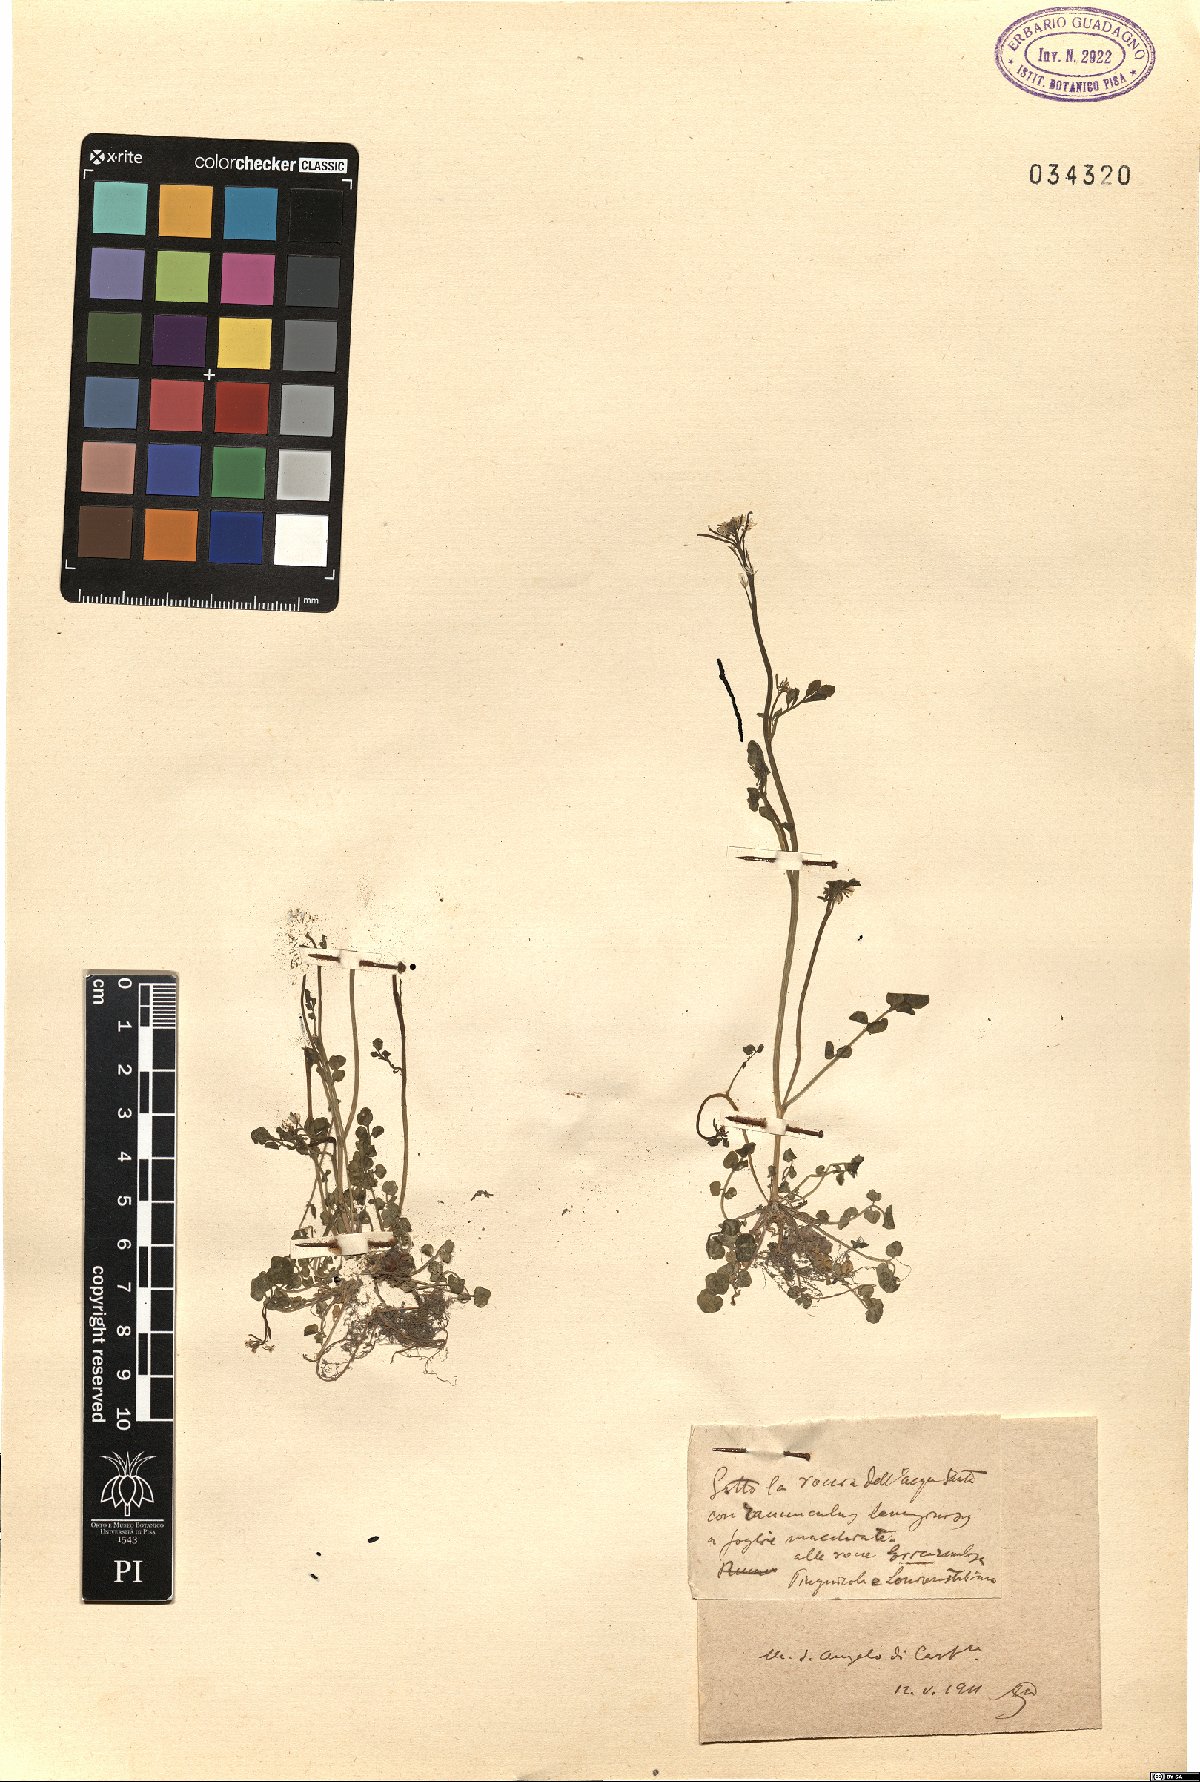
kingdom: Plantae
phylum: Tracheophyta
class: Magnoliopsida
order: Brassicales
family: Brassicaceae
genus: Cardamine
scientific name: Cardamine
